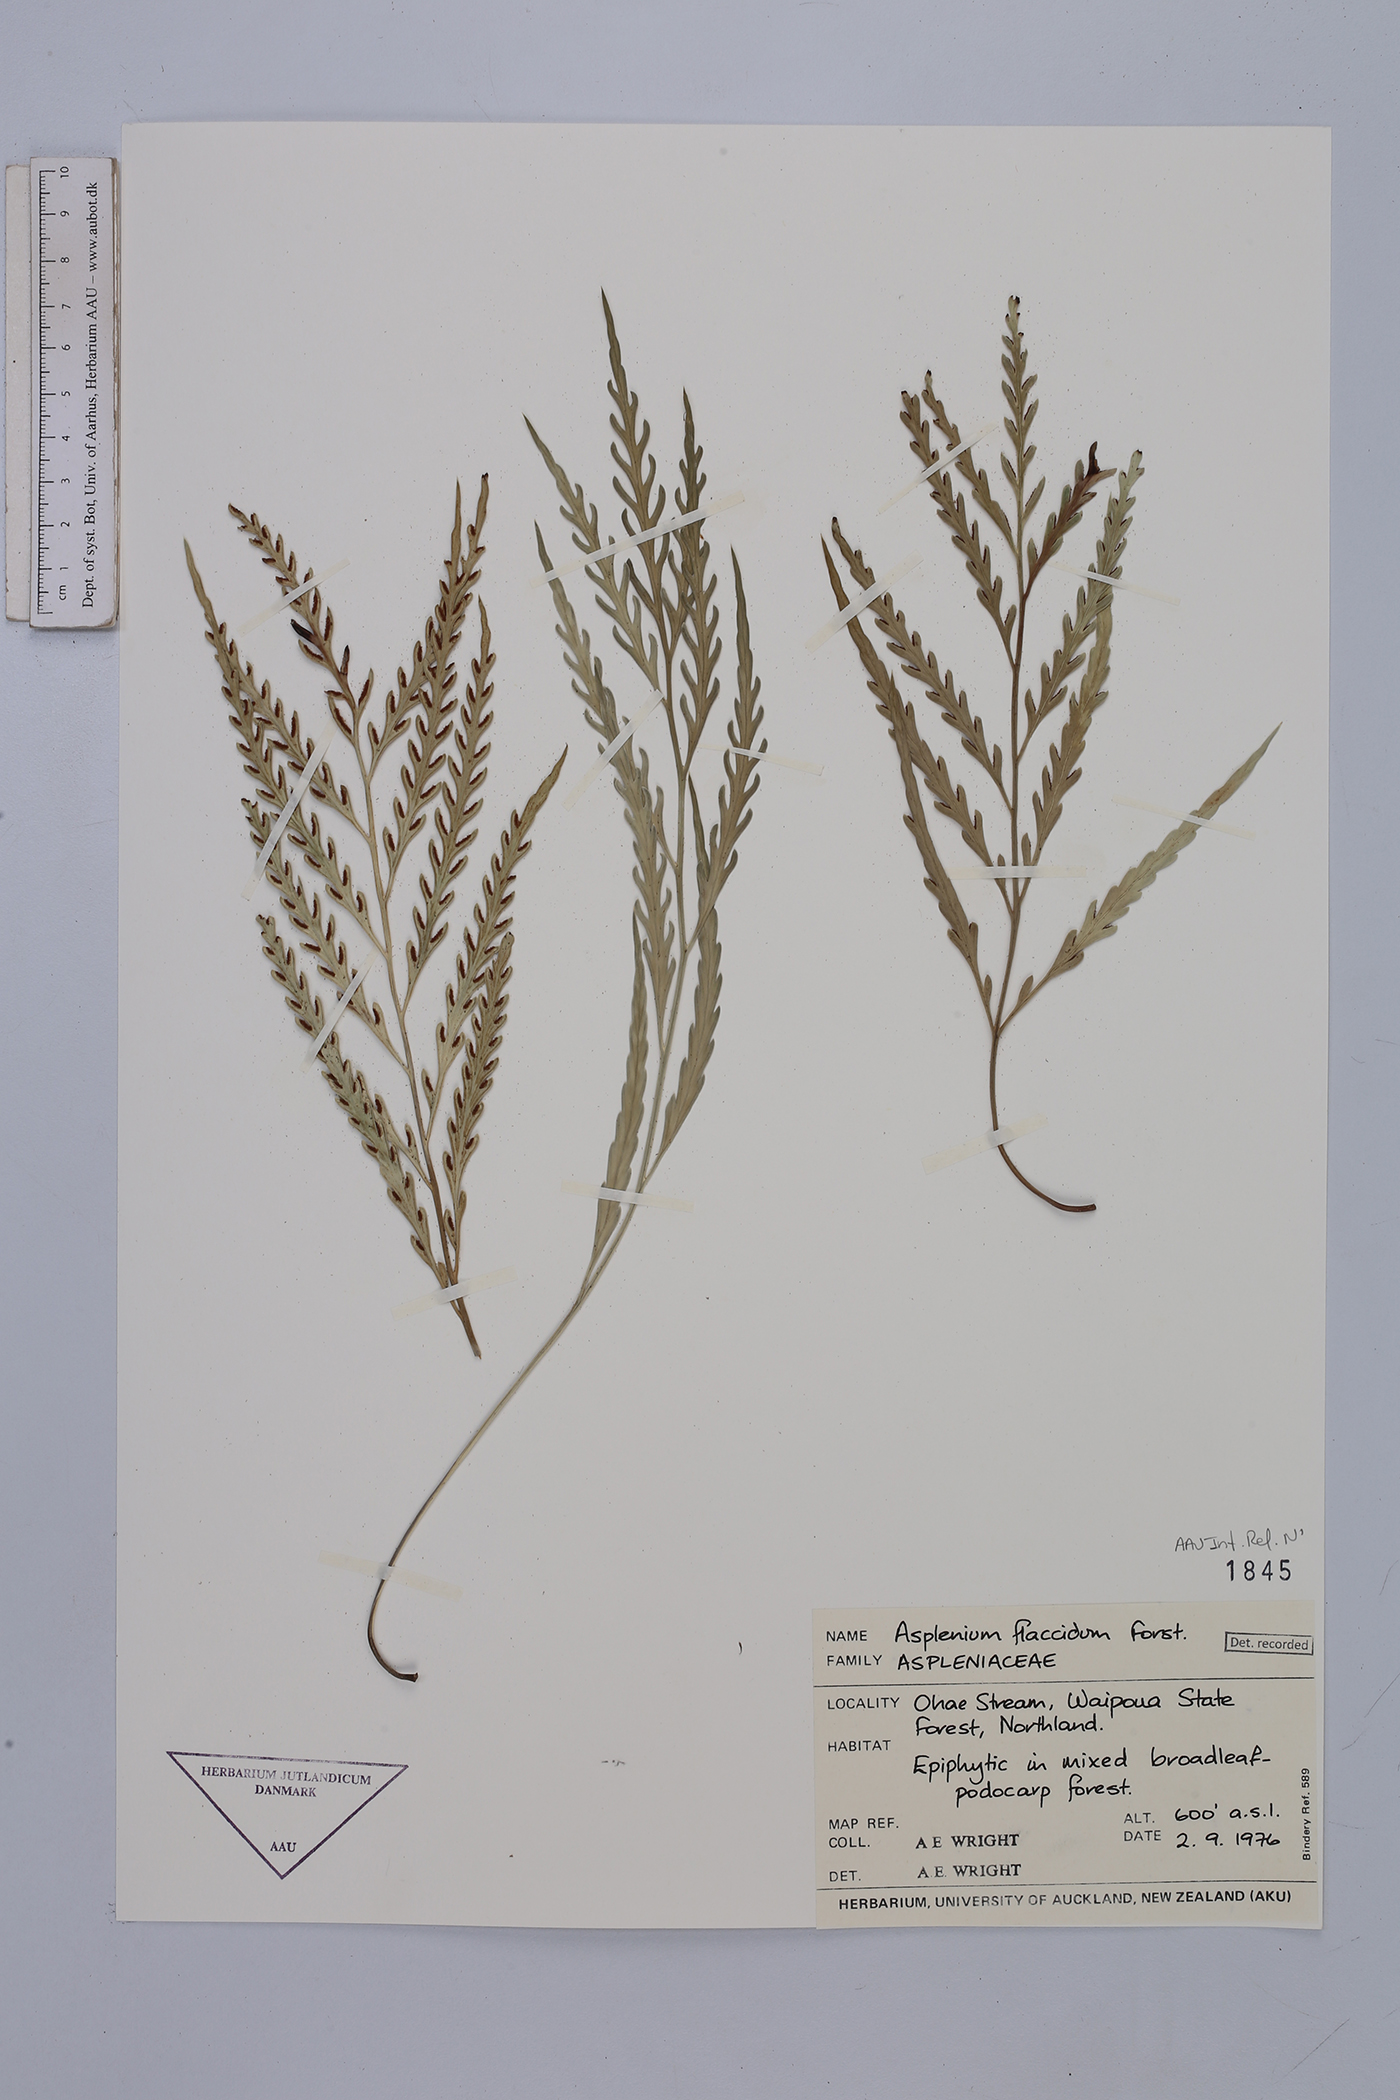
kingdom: Plantae
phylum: Tracheophyta
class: Polypodiopsida
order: Polypodiales
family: Aspleniaceae
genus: Asplenium
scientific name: Asplenium flaccidum
